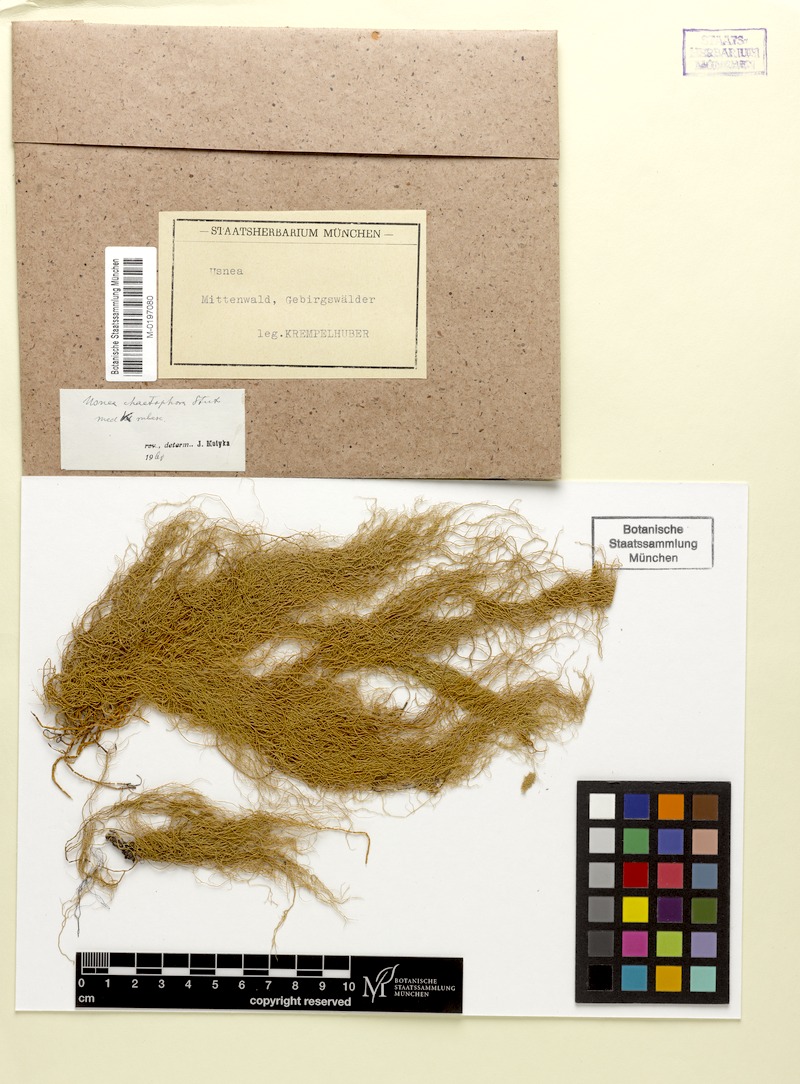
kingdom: Fungi
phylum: Ascomycota
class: Lecanoromycetes
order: Lecanorales
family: Parmeliaceae
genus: Usnea
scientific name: Usnea chaetophora
